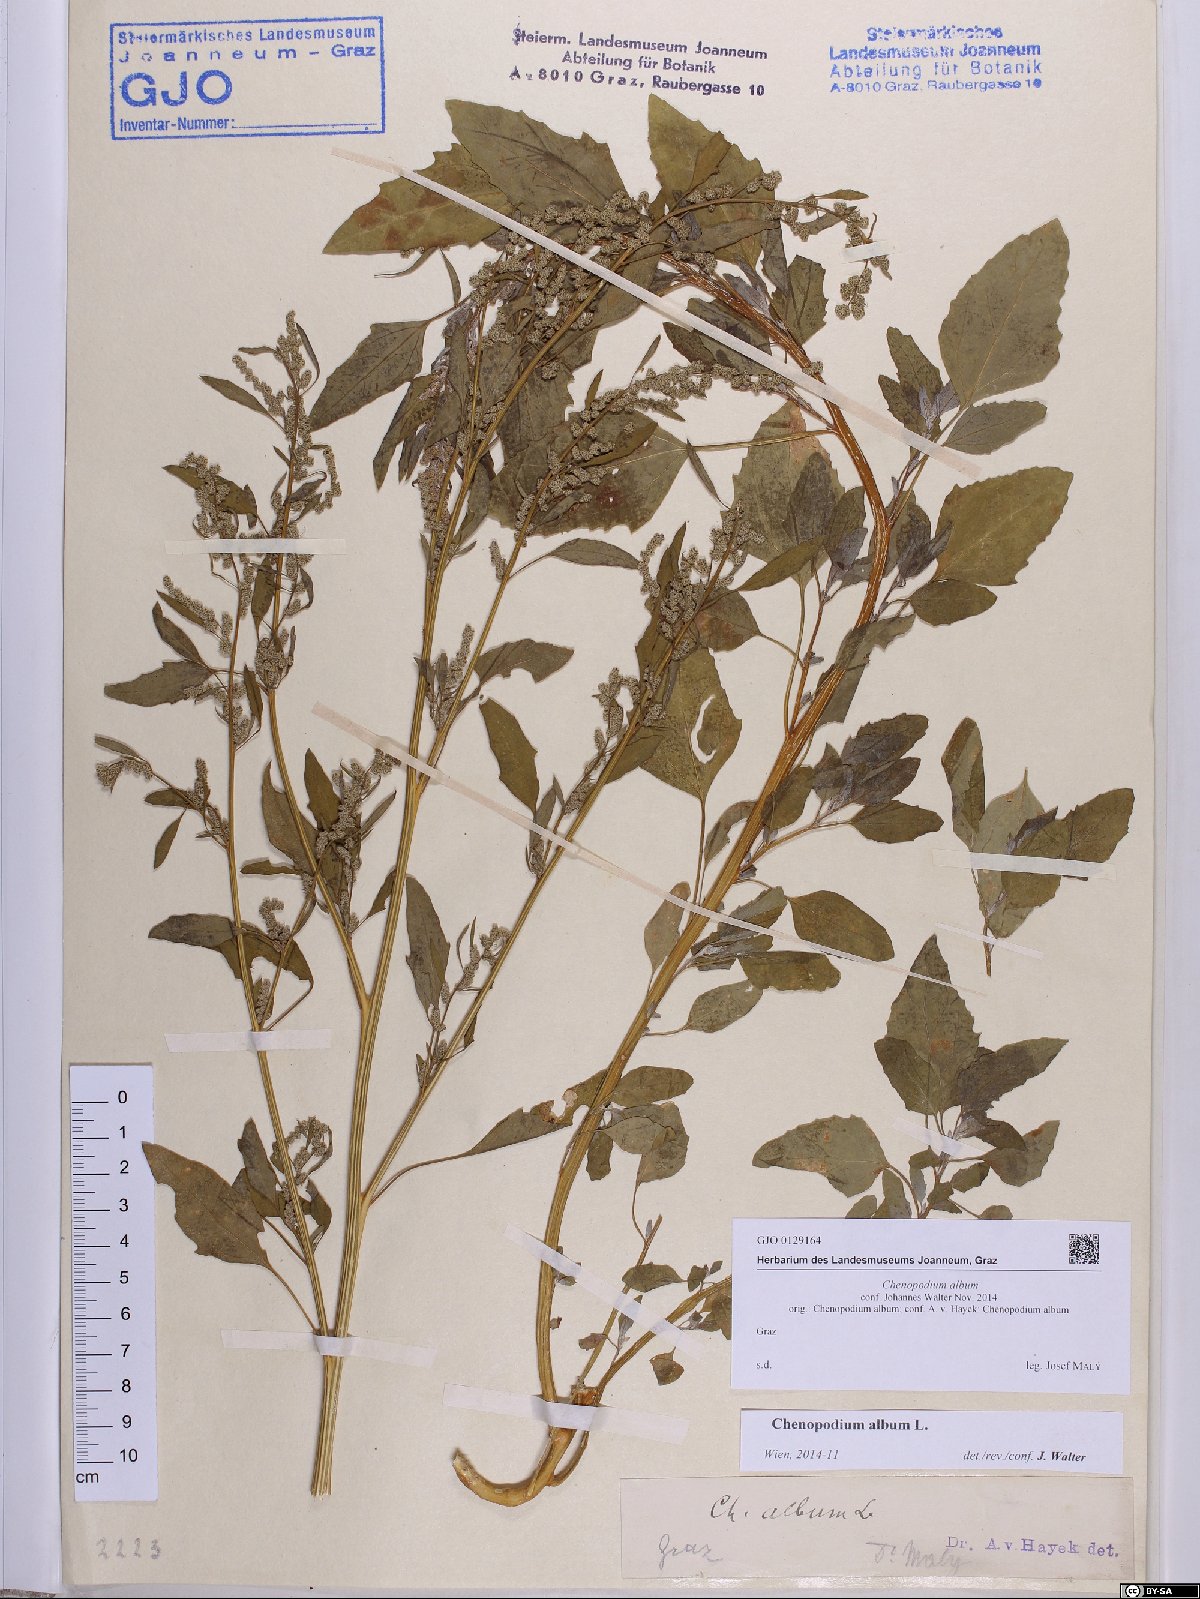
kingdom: Plantae
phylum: Tracheophyta
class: Magnoliopsida
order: Caryophyllales
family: Amaranthaceae
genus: Chenopodium
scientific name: Chenopodium album
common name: Fat-hen
